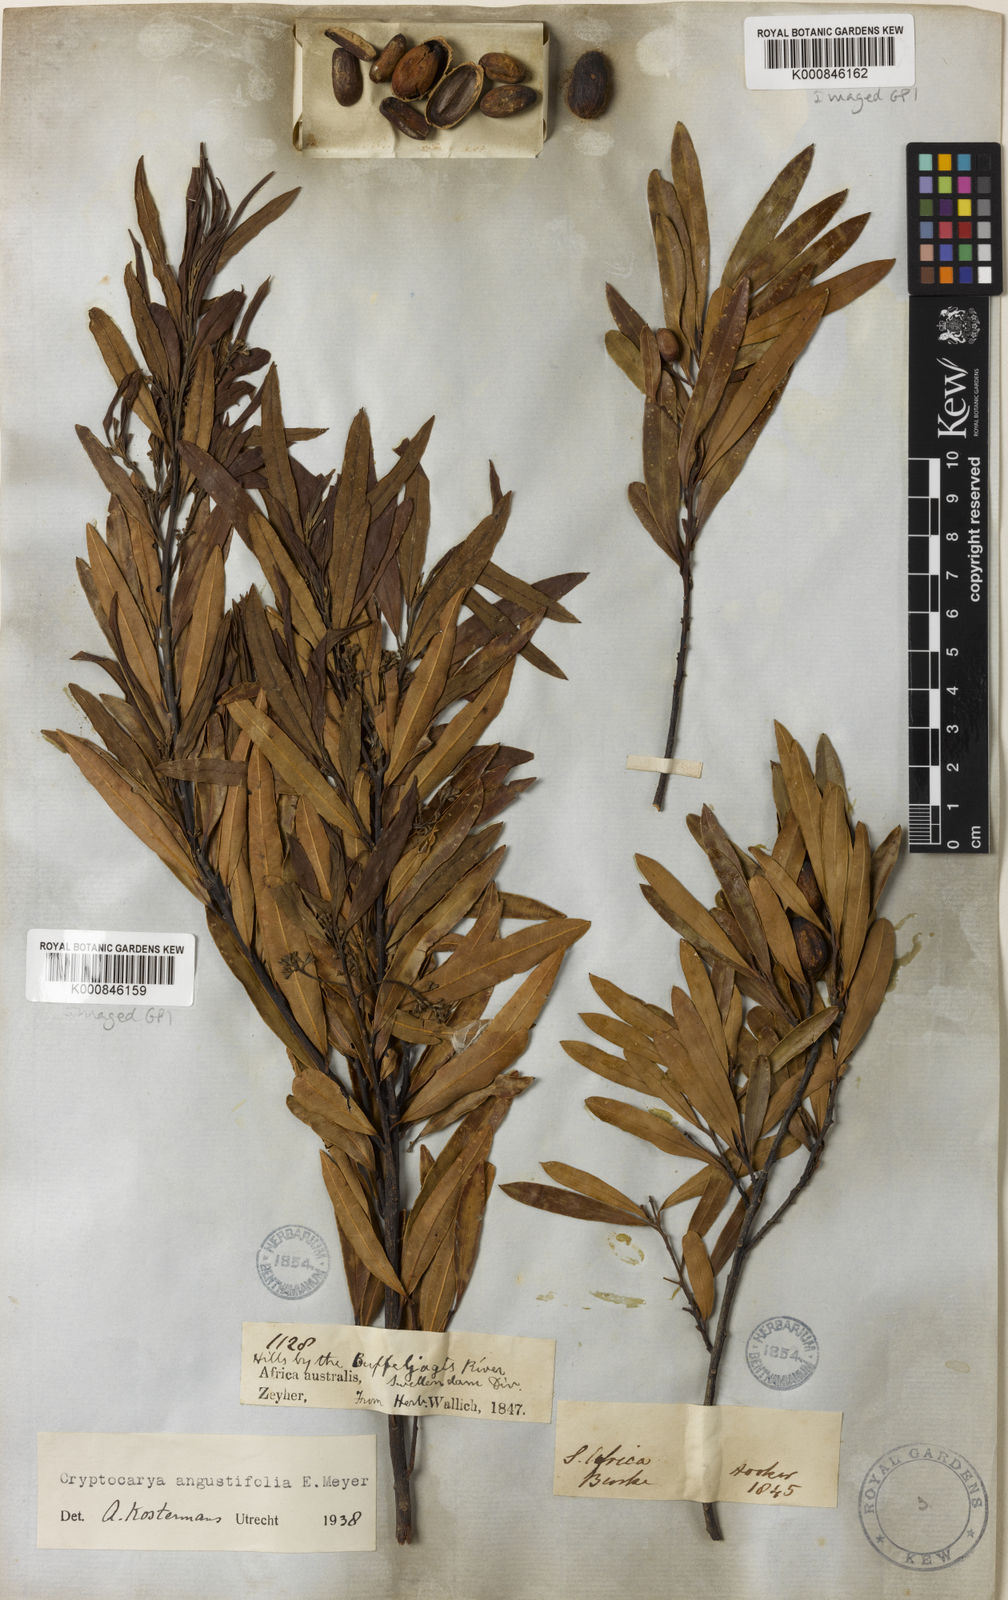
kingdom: Plantae
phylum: Tracheophyta
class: Magnoliopsida
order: Laurales
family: Lauraceae
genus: Cryptocarya
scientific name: Cryptocarya angustifolia
